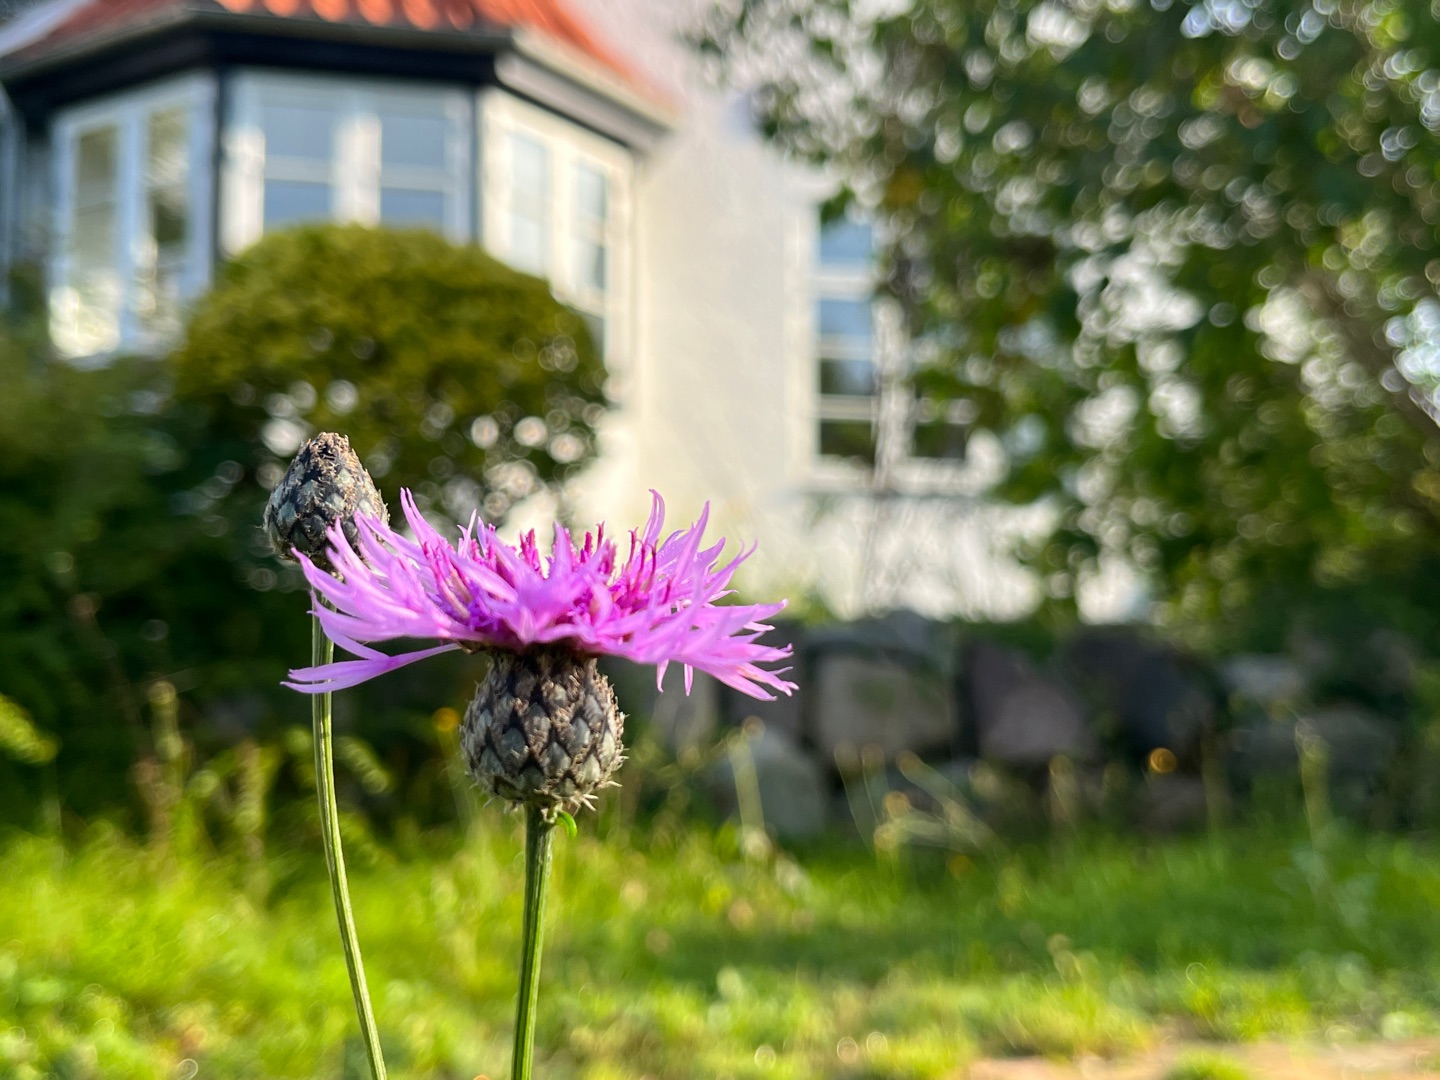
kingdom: Plantae
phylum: Tracheophyta
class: Magnoliopsida
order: Asterales
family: Asteraceae
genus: Centaurea
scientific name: Centaurea scabiosa
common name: Stor knopurt
